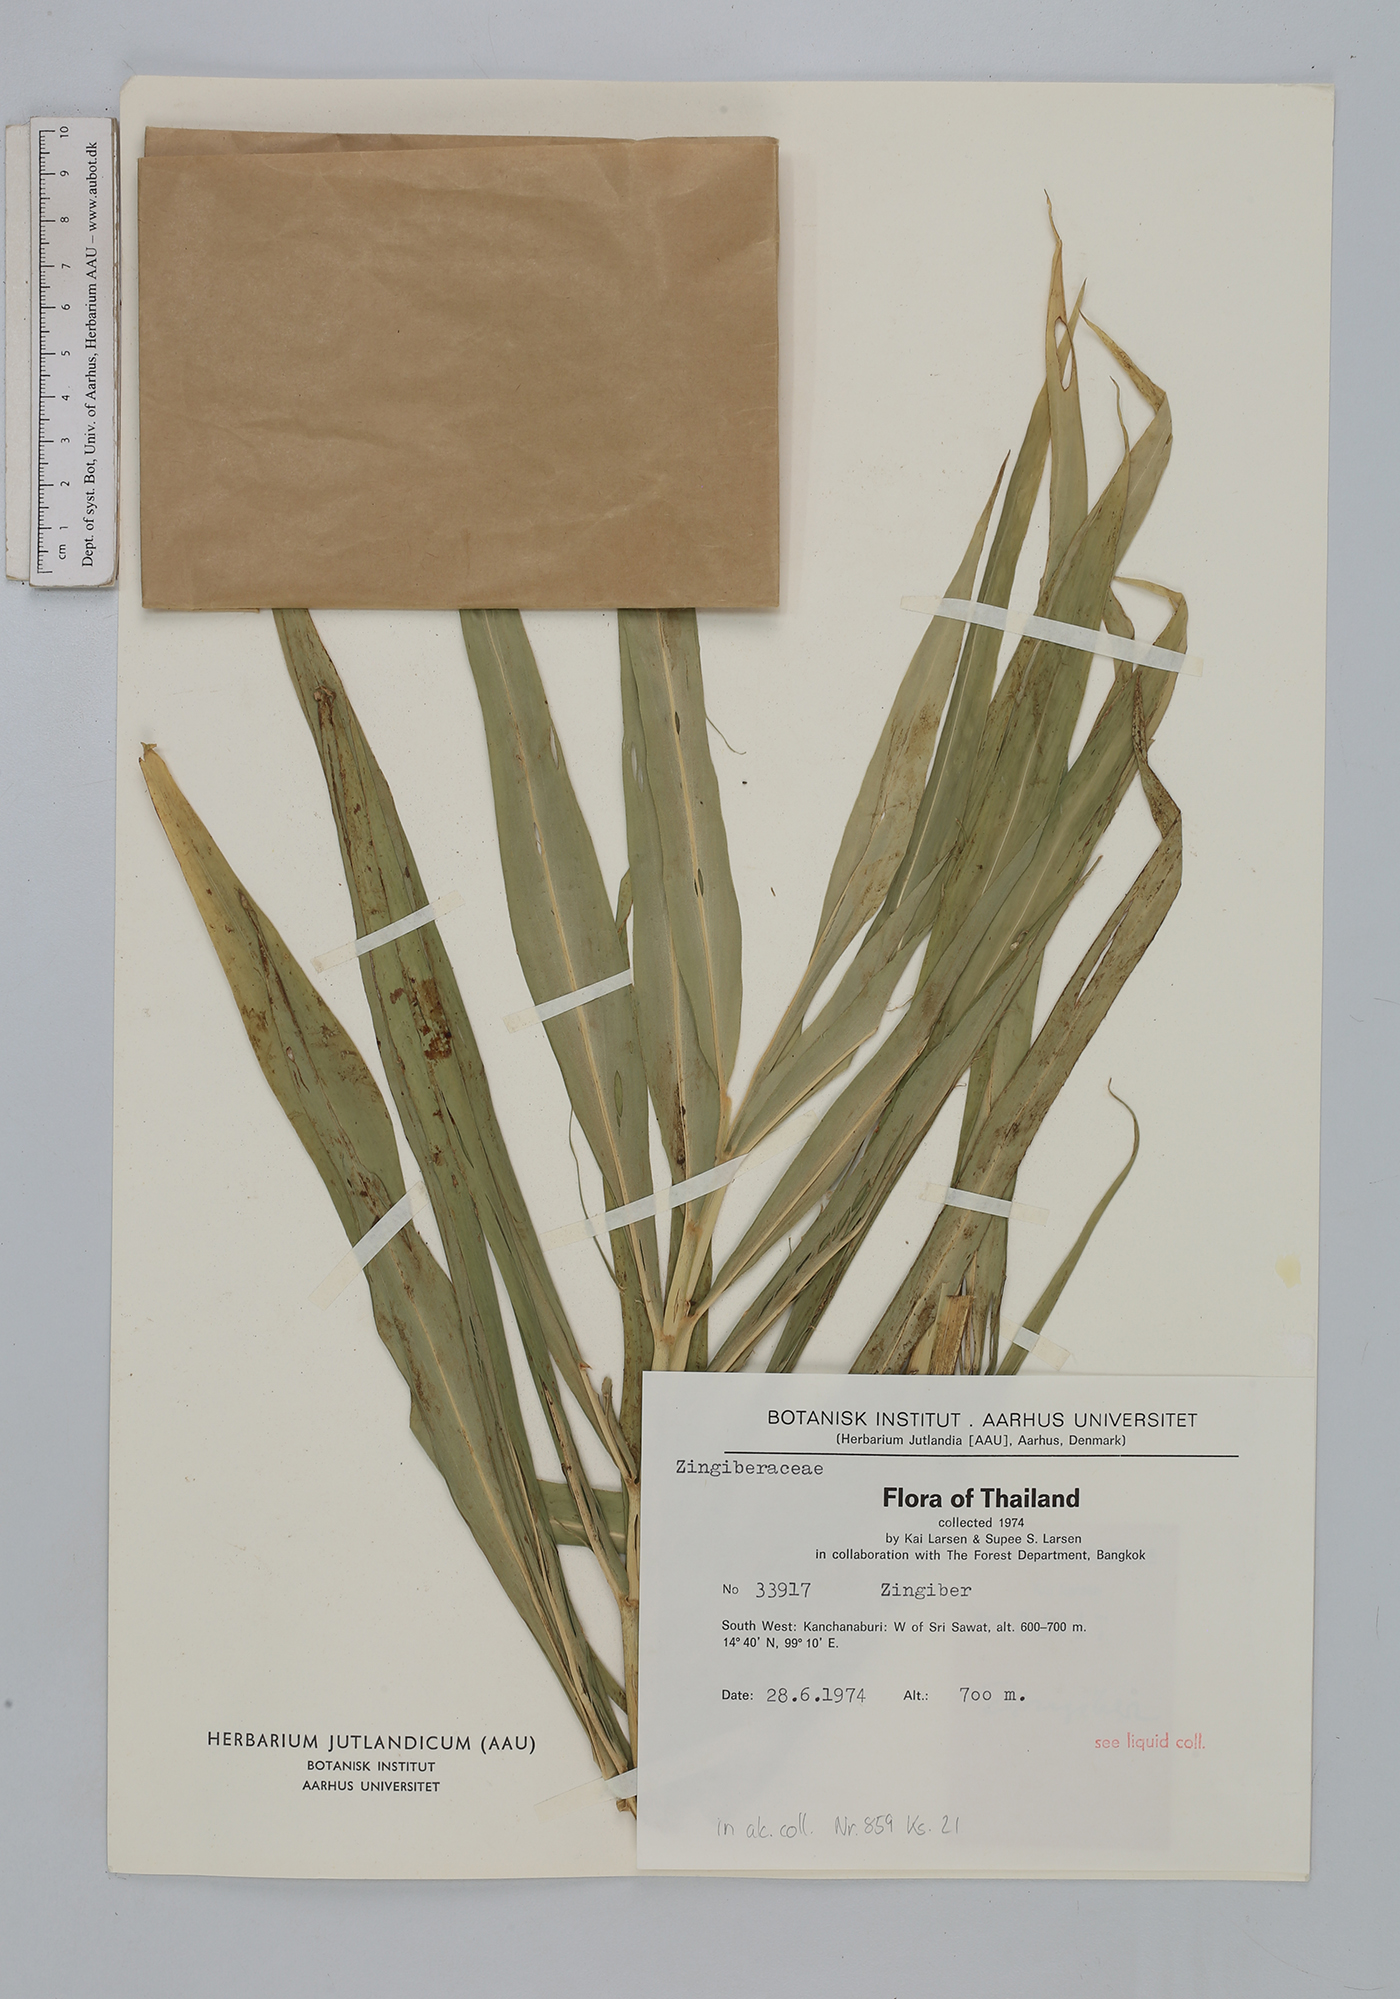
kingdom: Plantae
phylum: Tracheophyta
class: Liliopsida
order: Zingiberales
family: Zingiberaceae
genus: Zingiber
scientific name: Zingiber
